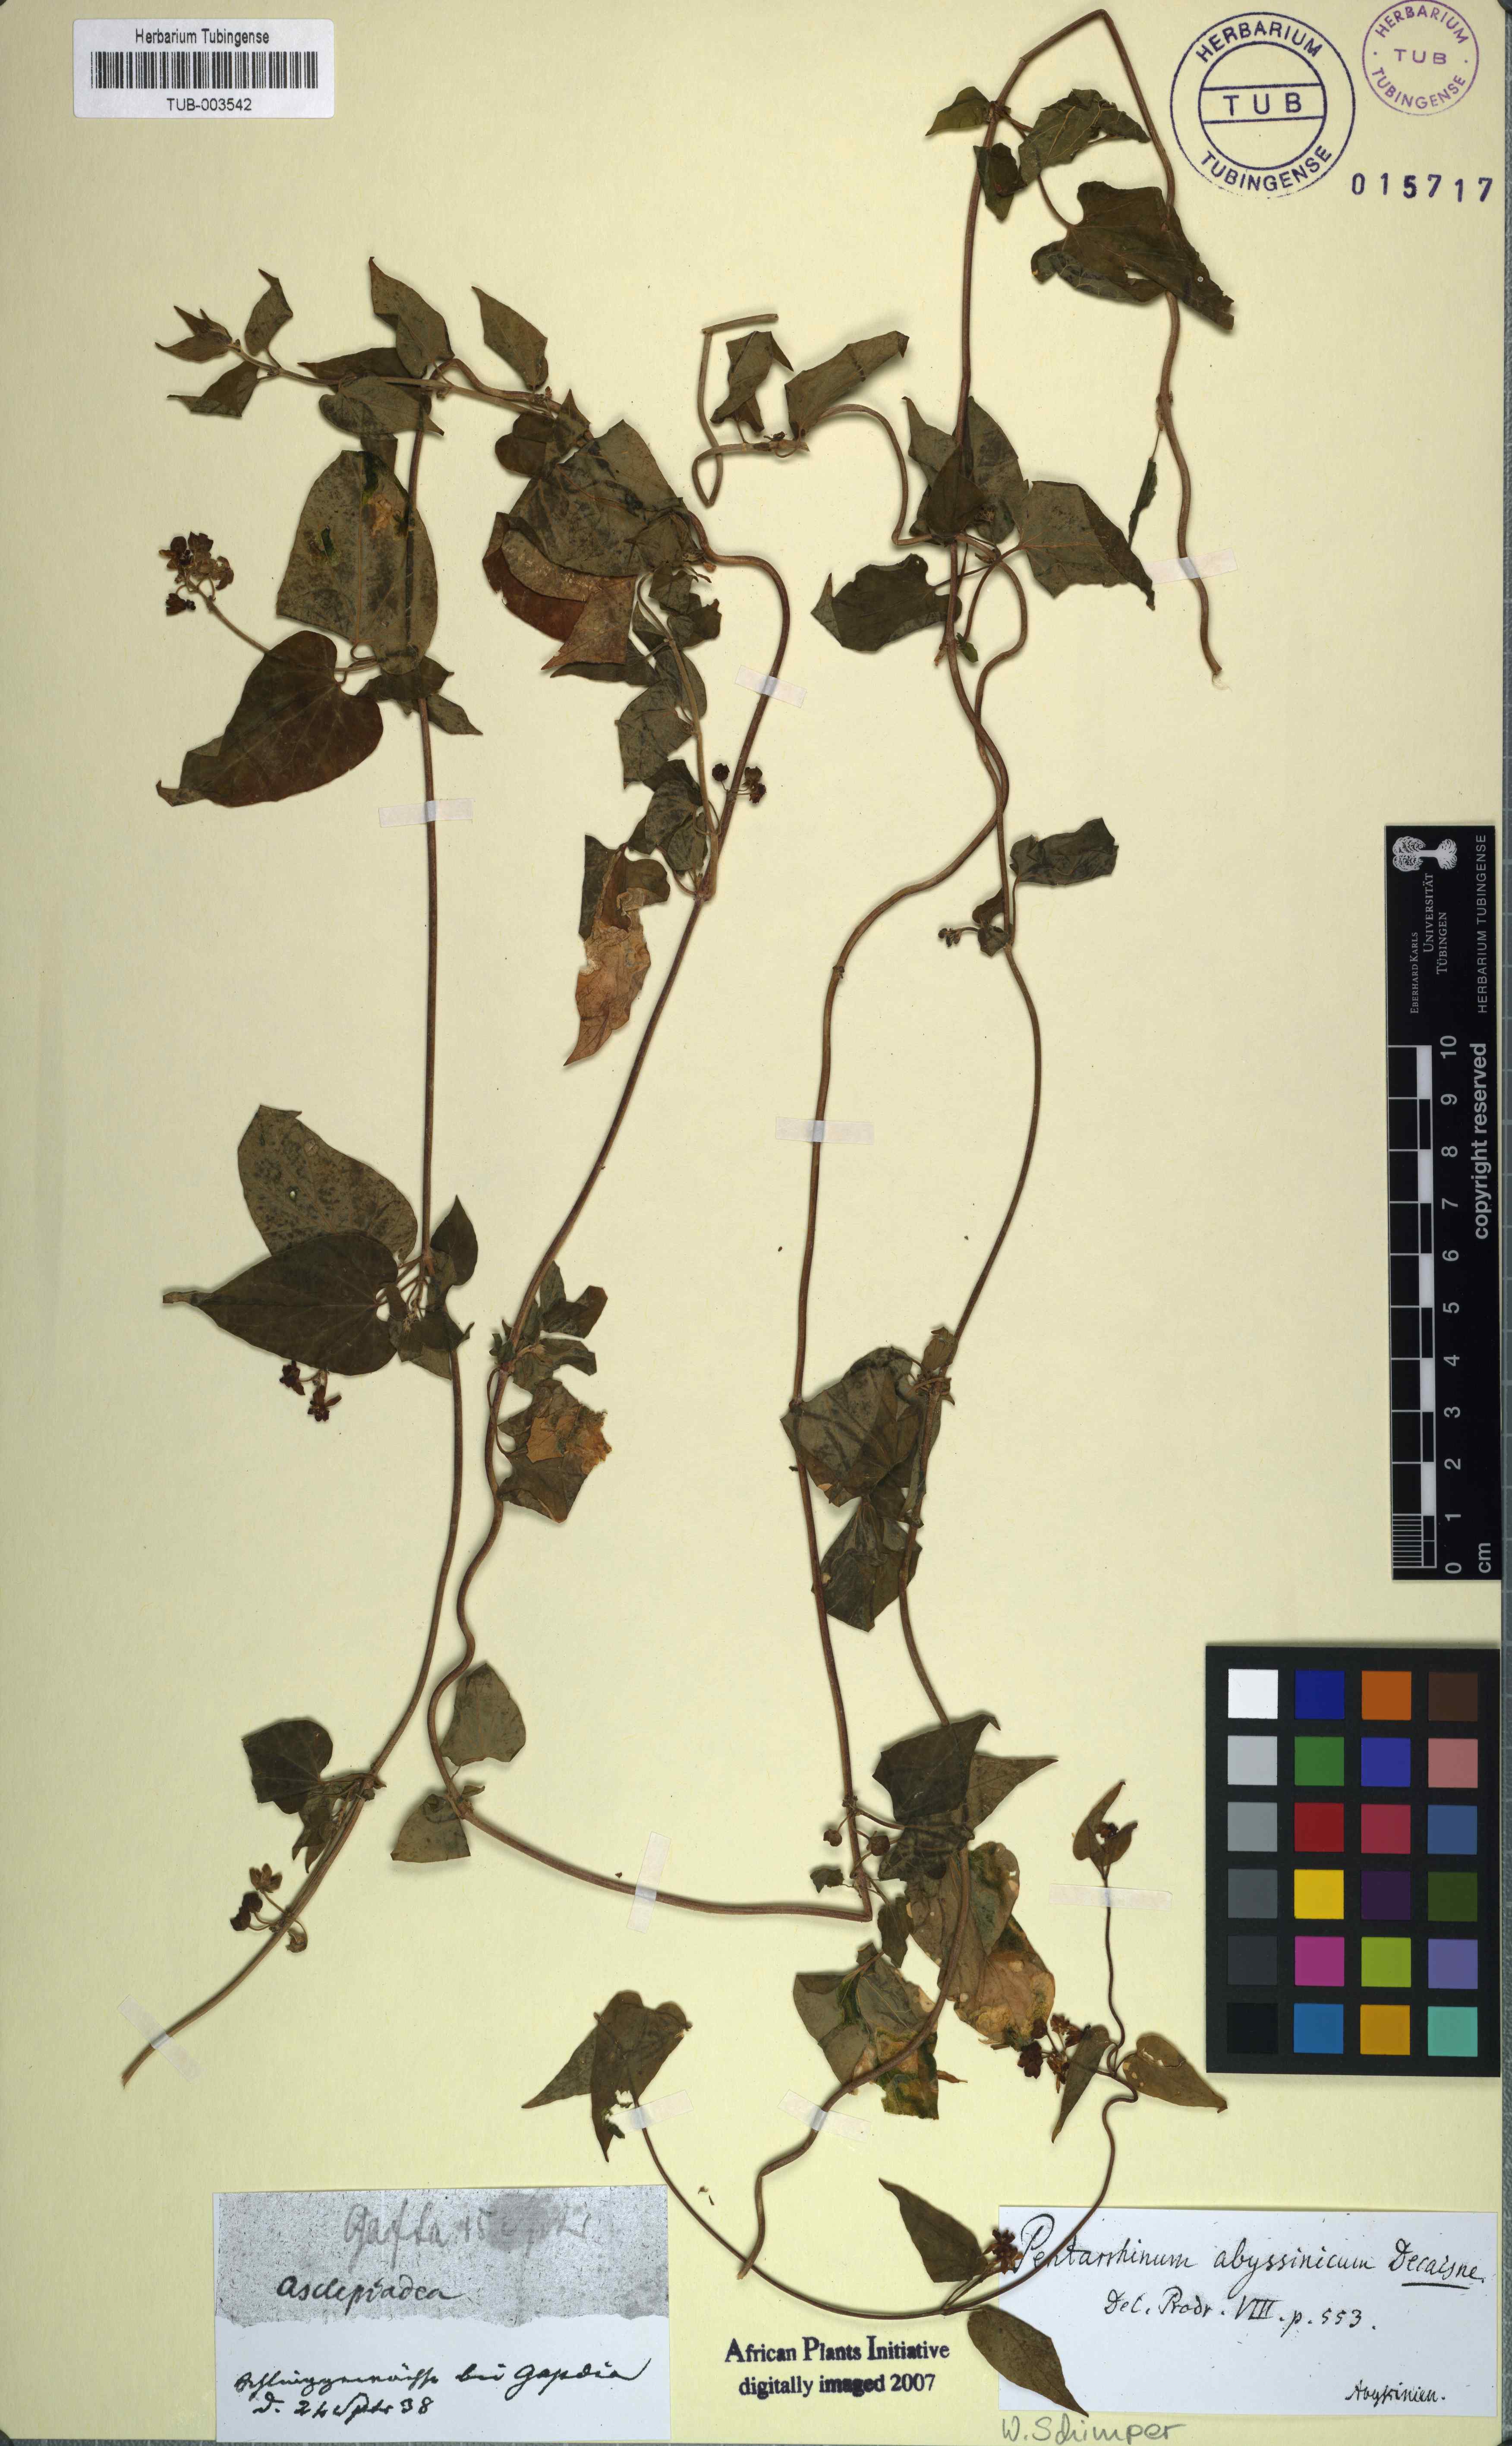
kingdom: Plantae
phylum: Tracheophyta
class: Magnoliopsida
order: Gentianales
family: Apocynaceae
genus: Cynanchum
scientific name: Cynanchum ethiopicum
